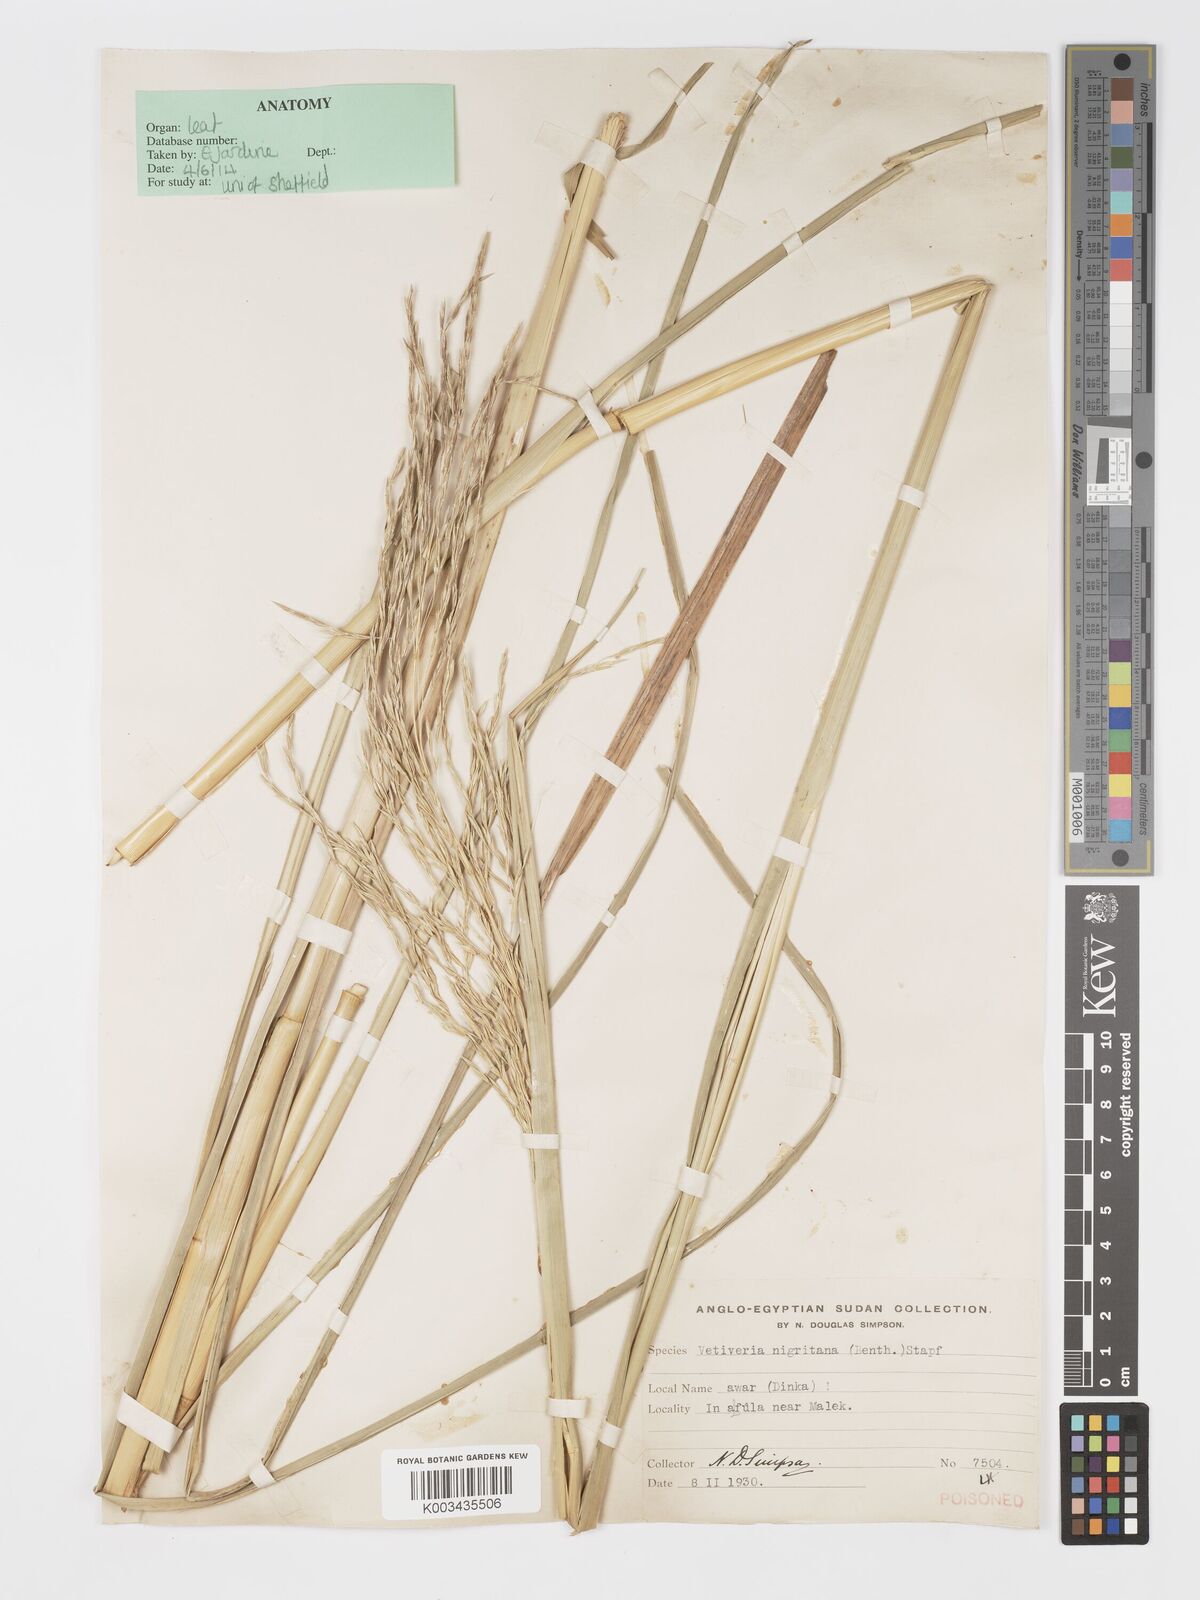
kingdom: Plantae
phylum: Tracheophyta
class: Liliopsida
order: Poales
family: Poaceae
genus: Chrysopogon
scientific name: Chrysopogon nigritanus
